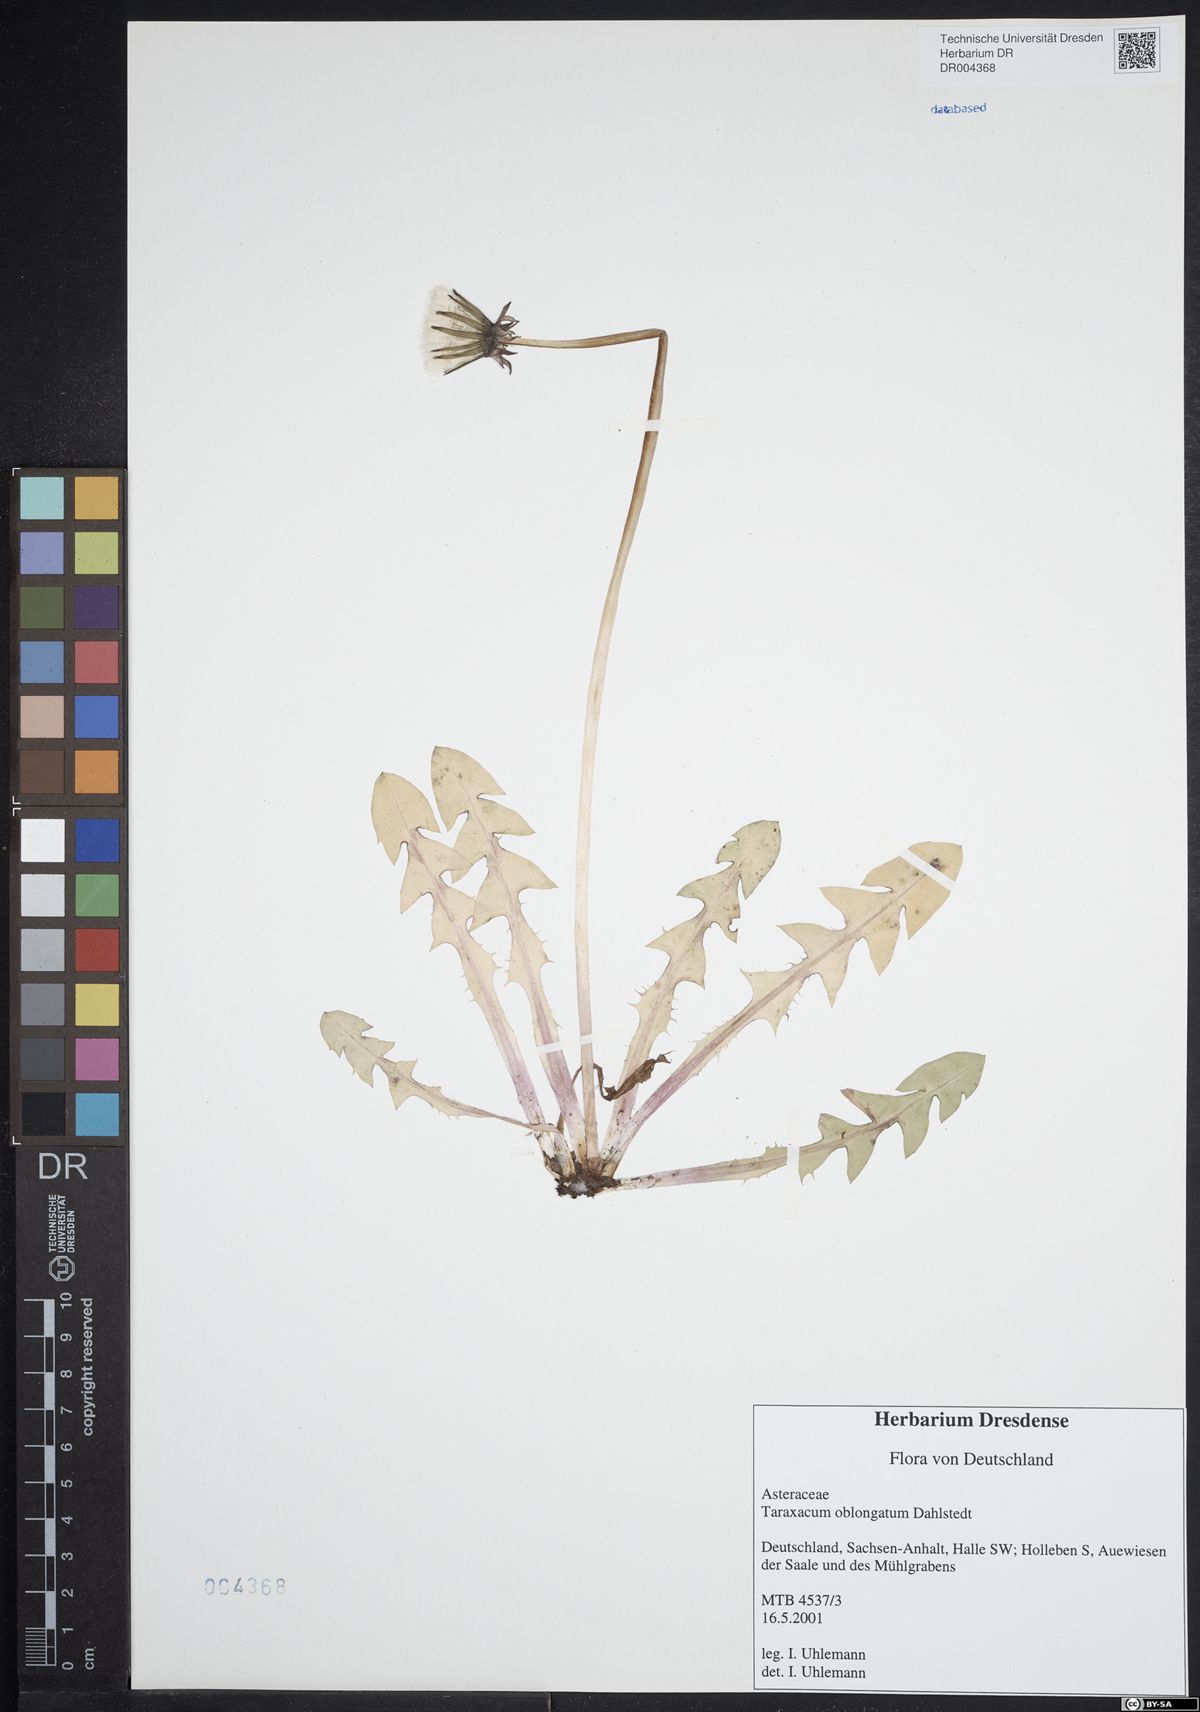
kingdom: Plantae
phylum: Tracheophyta
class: Magnoliopsida
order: Asterales
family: Asteraceae
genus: Taraxacum
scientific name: Taraxacum oblongatum
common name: Oblong-leaved dandelion
